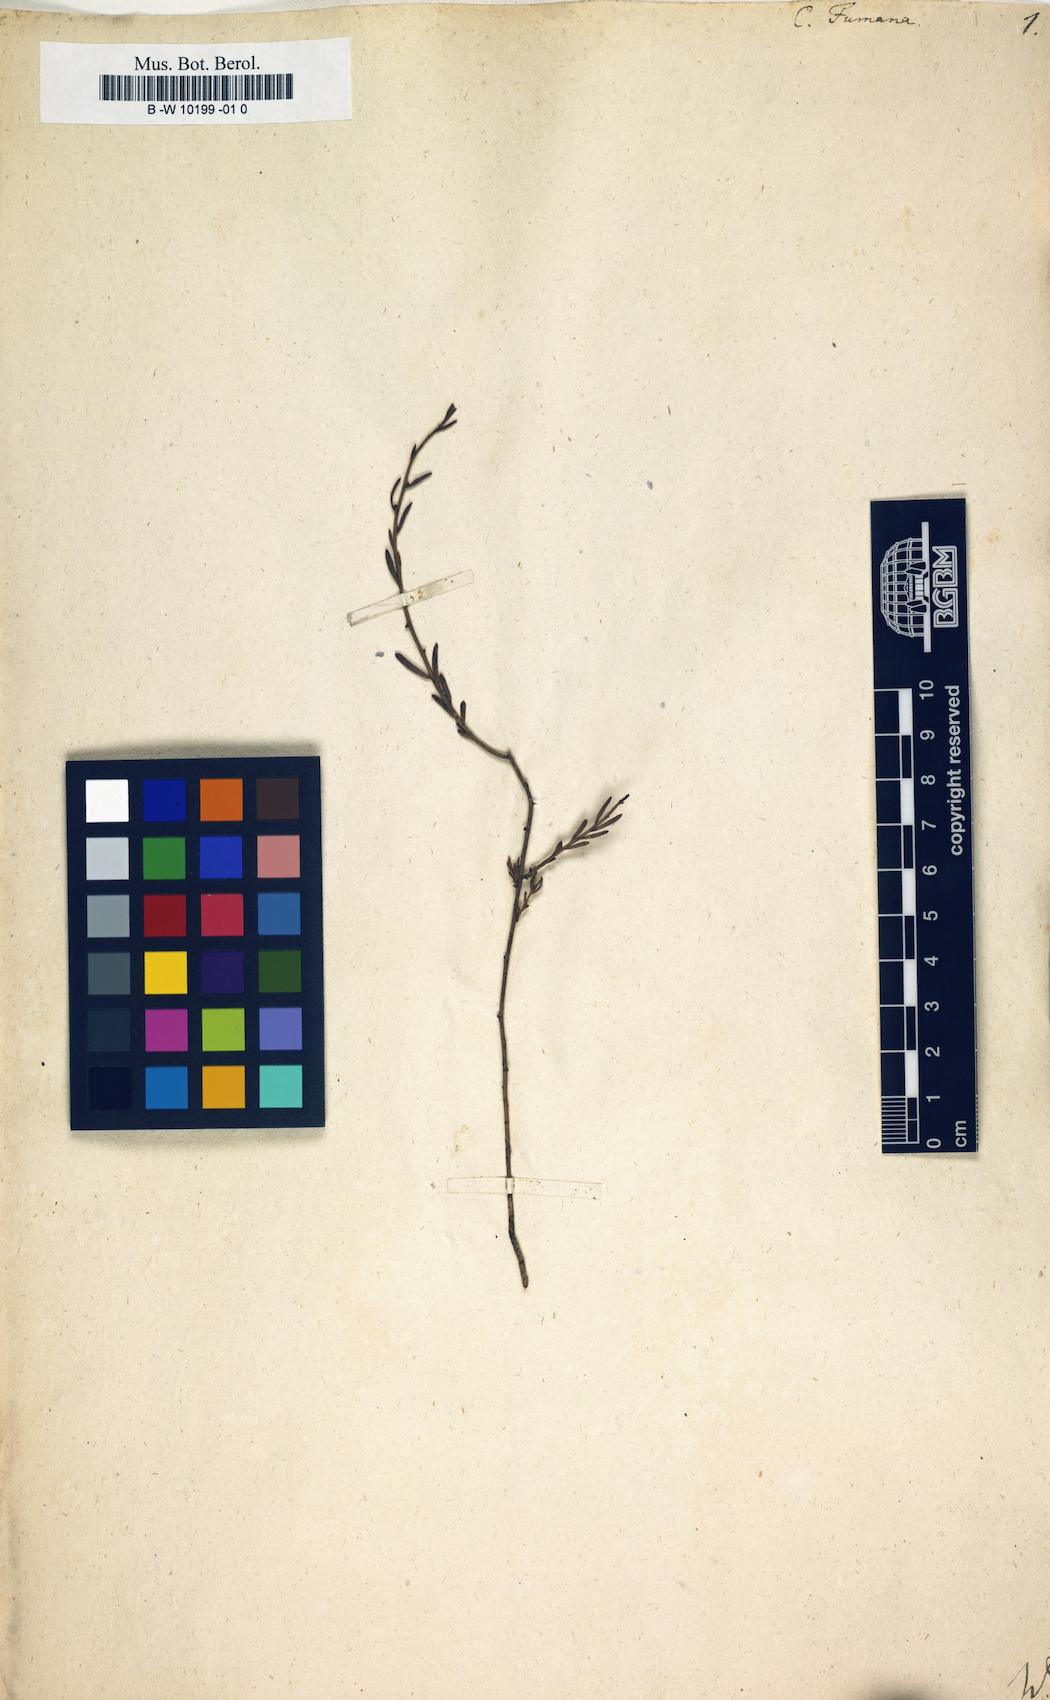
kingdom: Plantae
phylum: Tracheophyta
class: Magnoliopsida
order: Malvales
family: Cistaceae
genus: Fumana
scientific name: Fumana procumbens
